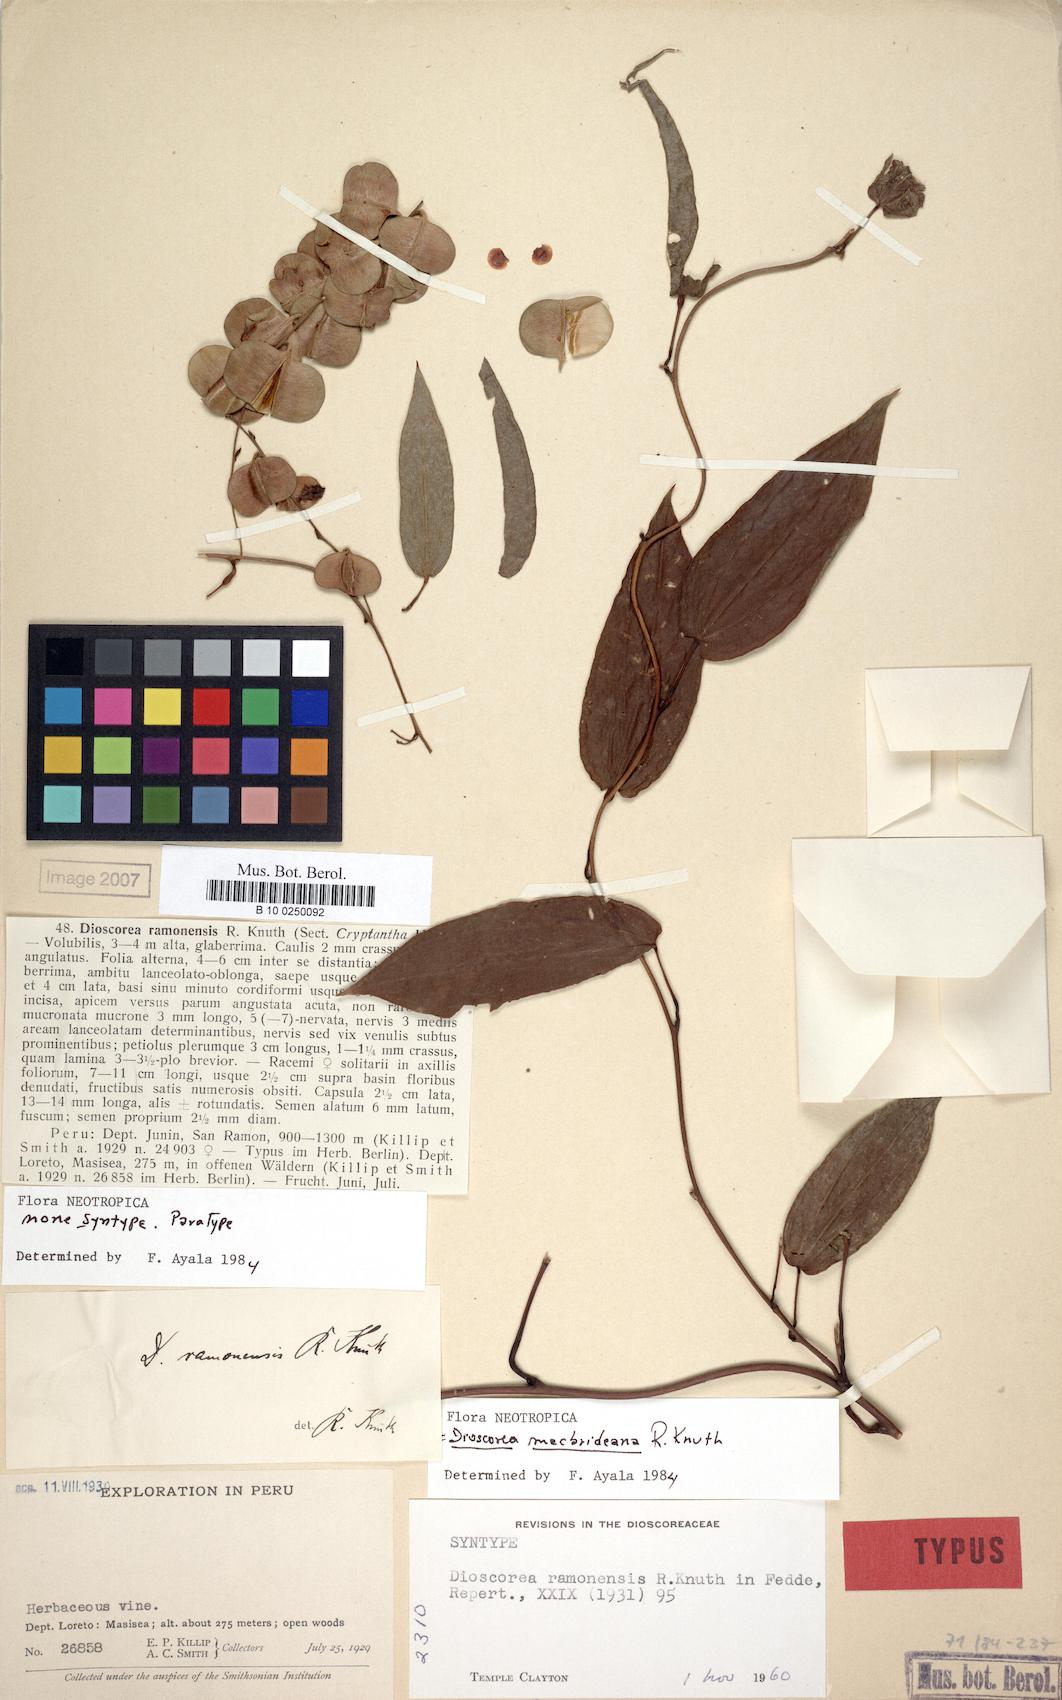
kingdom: Plantae
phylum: Tracheophyta
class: Liliopsida
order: Dioscoreales
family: Dioscoreaceae
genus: Dioscorea
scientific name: Dioscorea macbrideana
